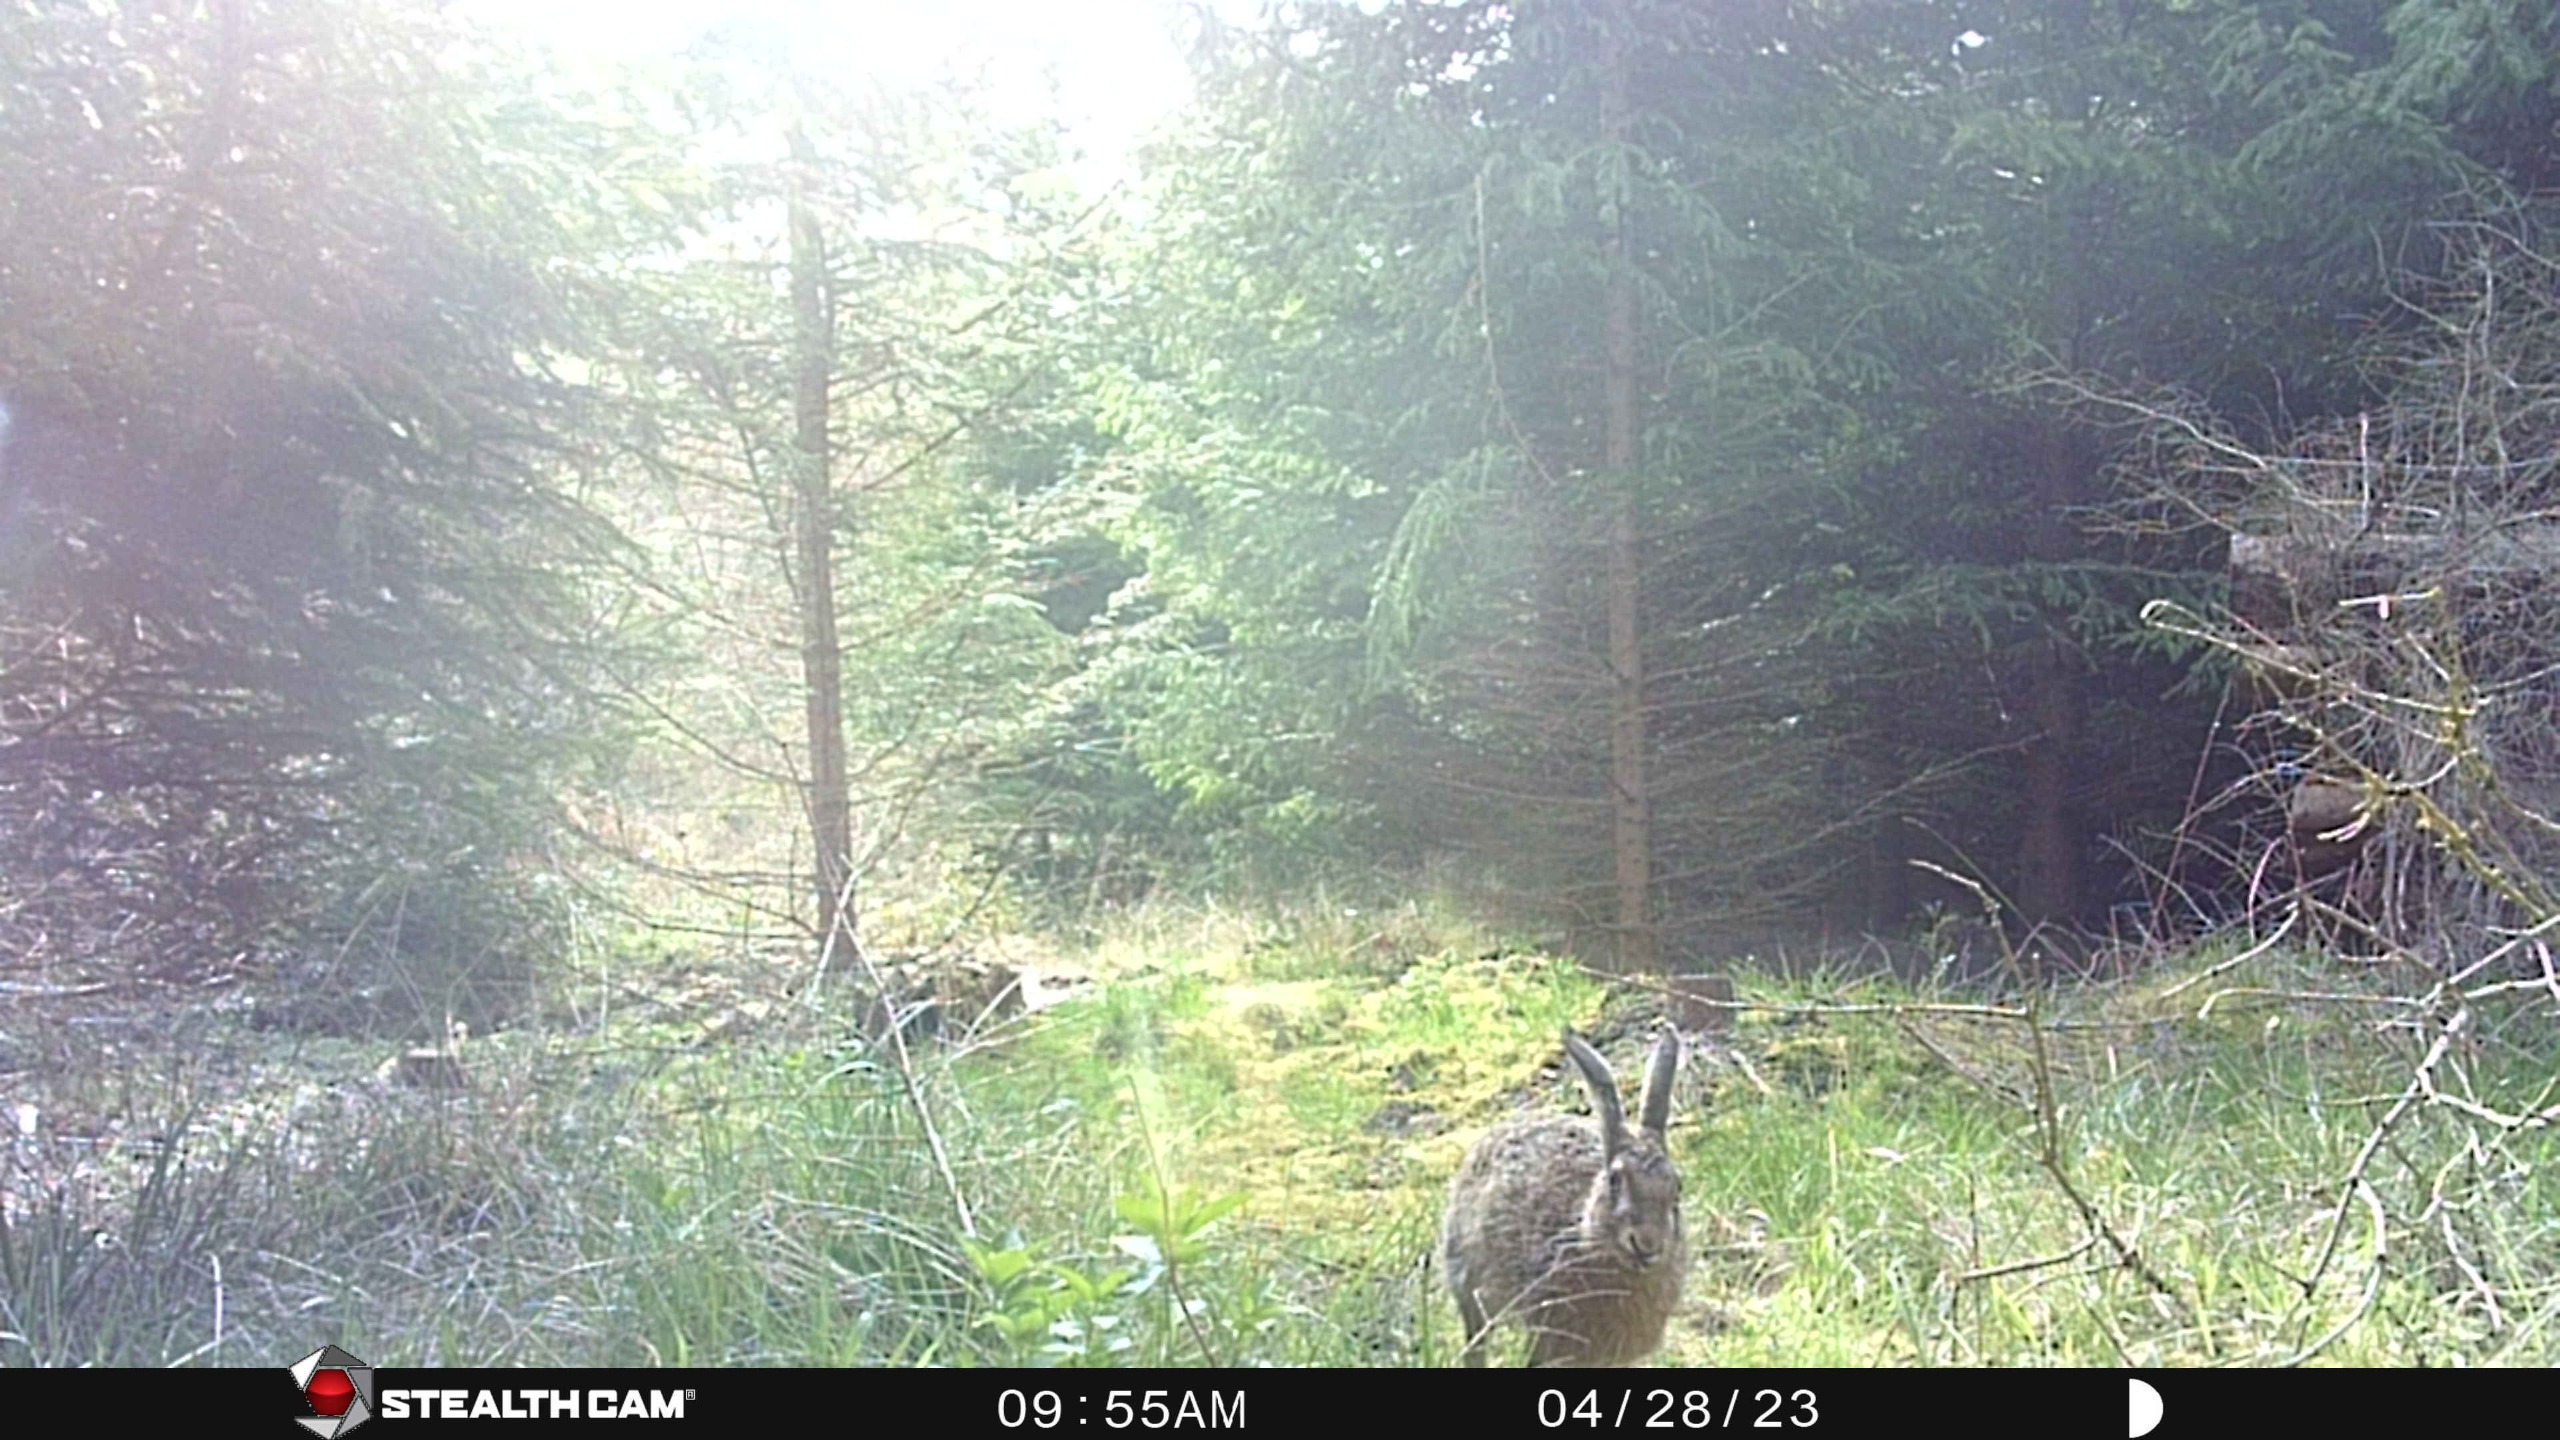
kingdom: Animalia
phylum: Chordata
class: Mammalia
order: Lagomorpha
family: Leporidae
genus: Lepus
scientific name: Lepus europaeus
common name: Hare
